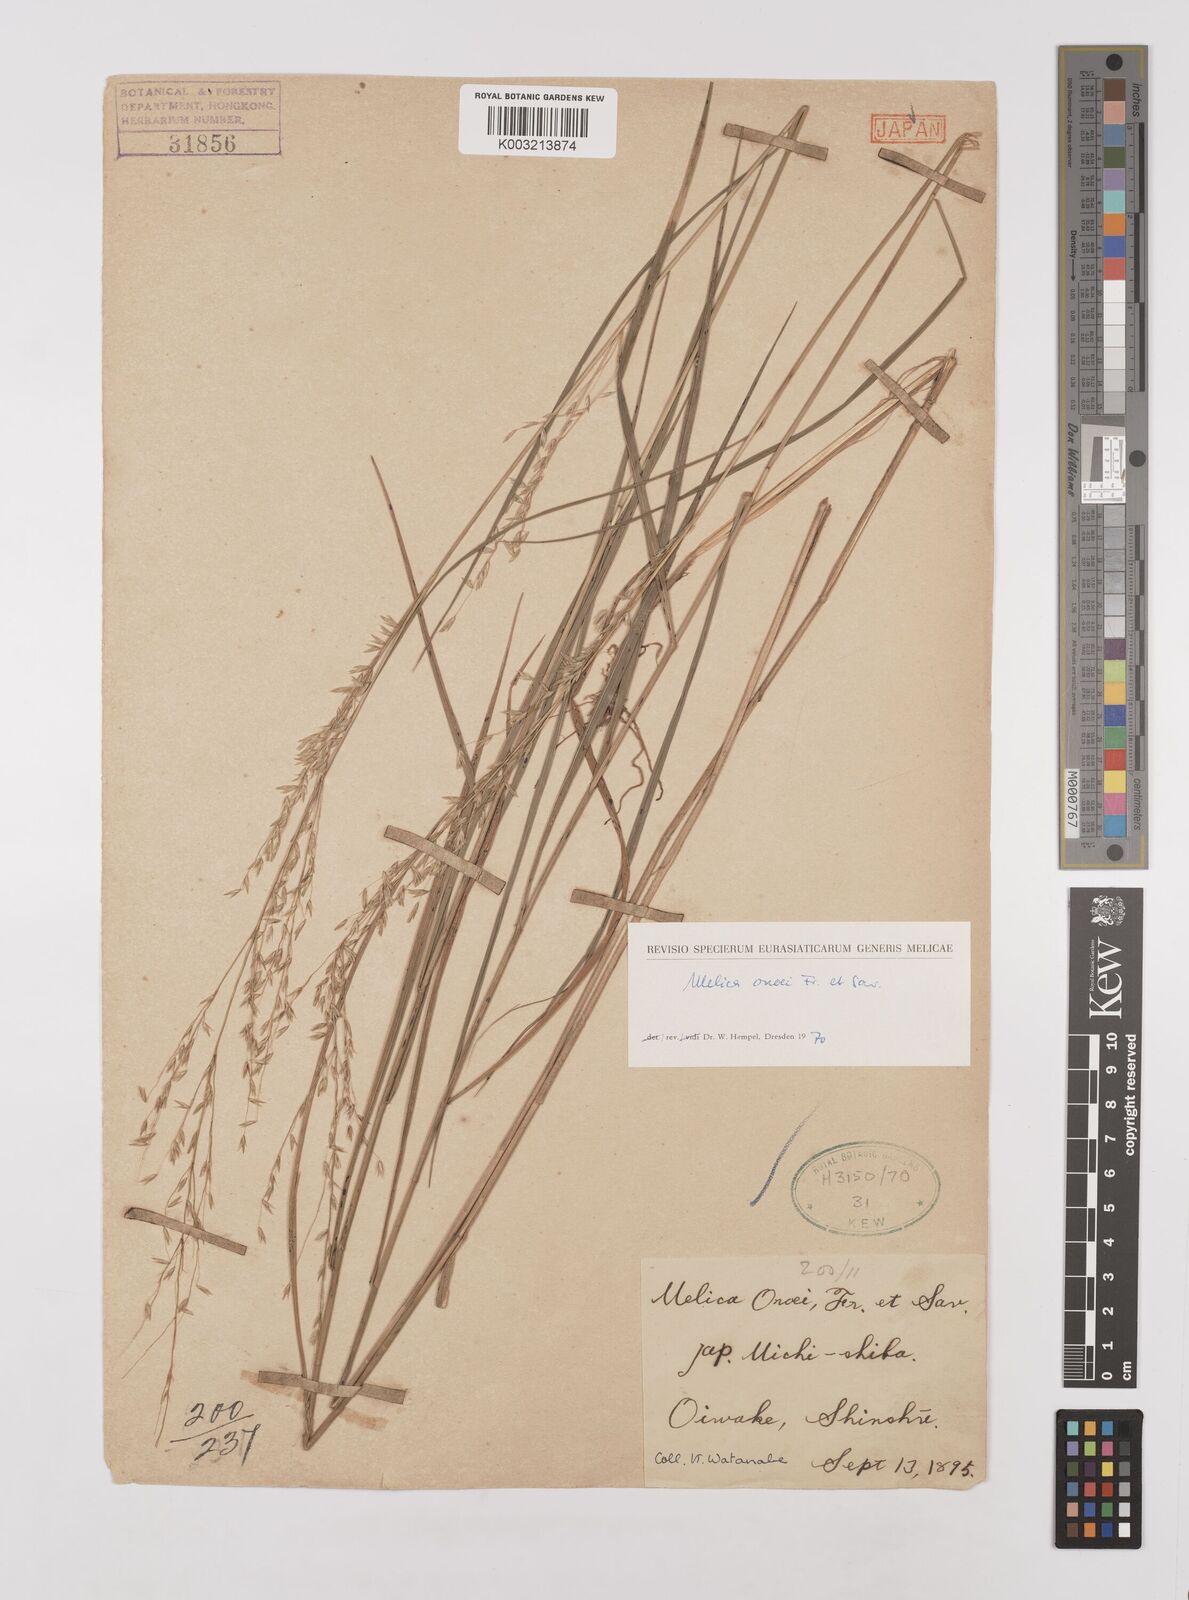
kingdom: Plantae
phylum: Tracheophyta
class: Liliopsida
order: Poales
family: Poaceae
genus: Melica
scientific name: Melica onoei
